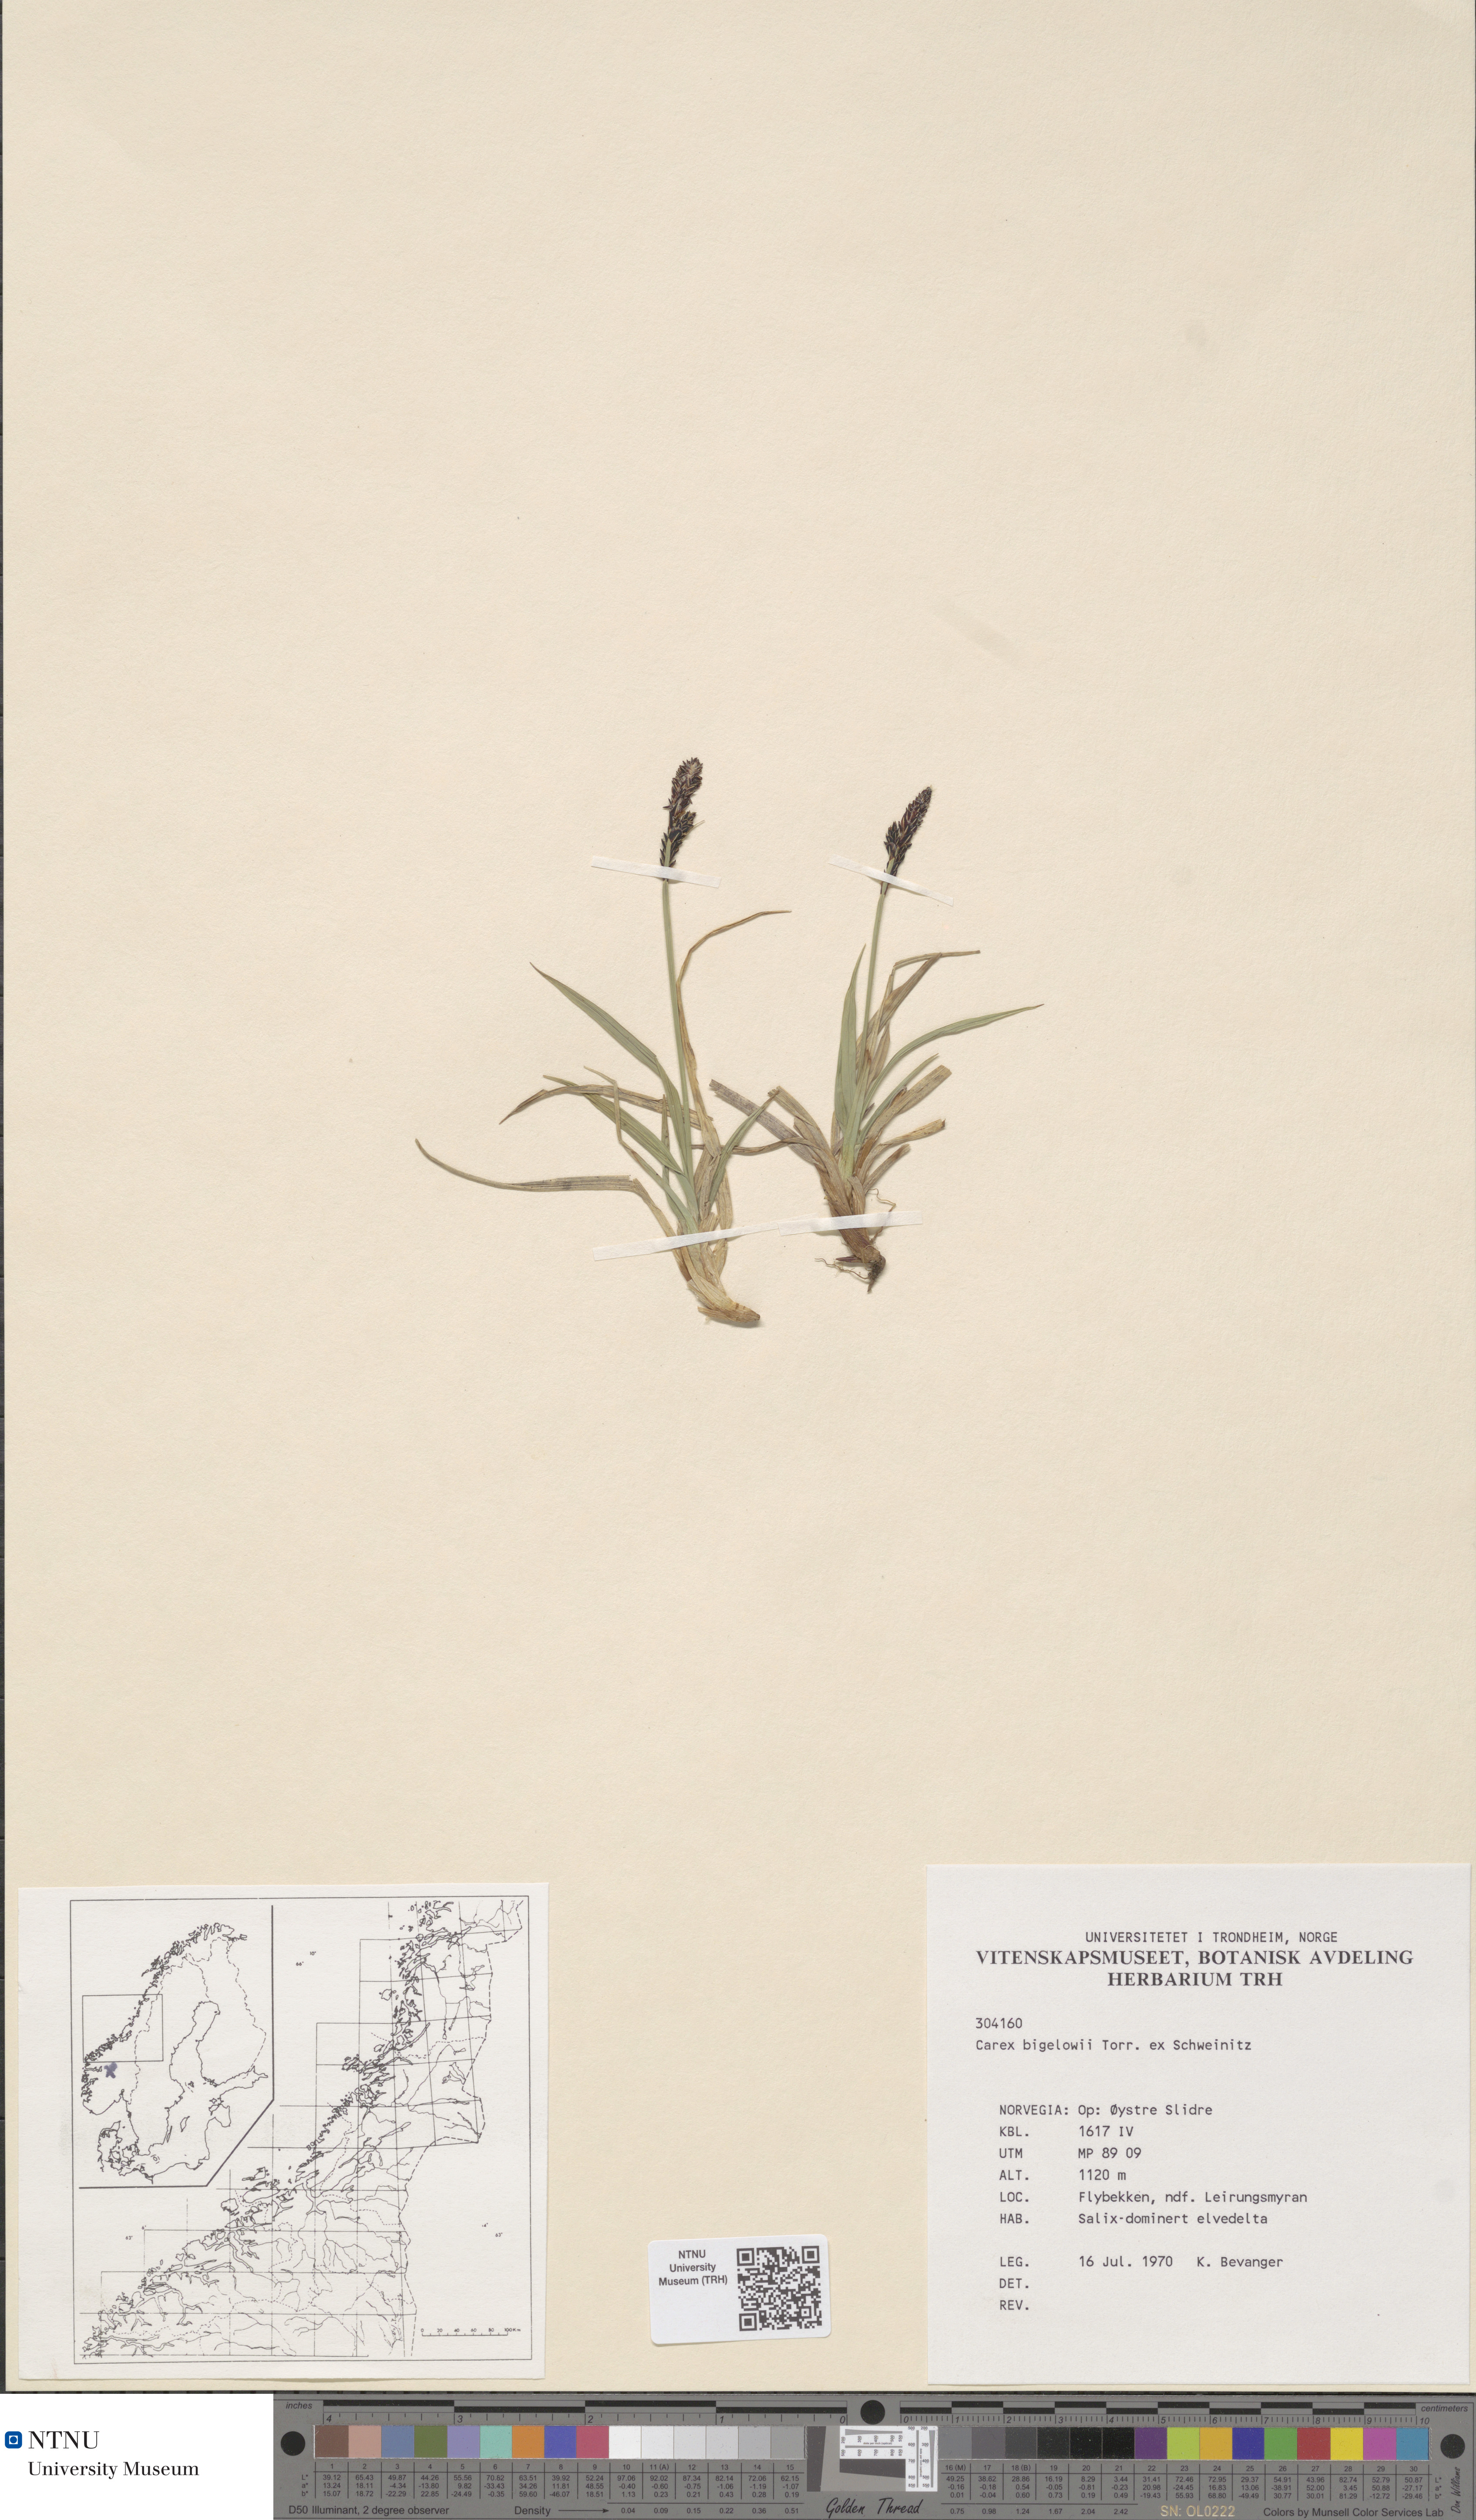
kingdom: Plantae
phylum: Tracheophyta
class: Liliopsida
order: Poales
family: Cyperaceae
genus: Carex
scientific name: Carex bigelowii
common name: Stiff sedge
